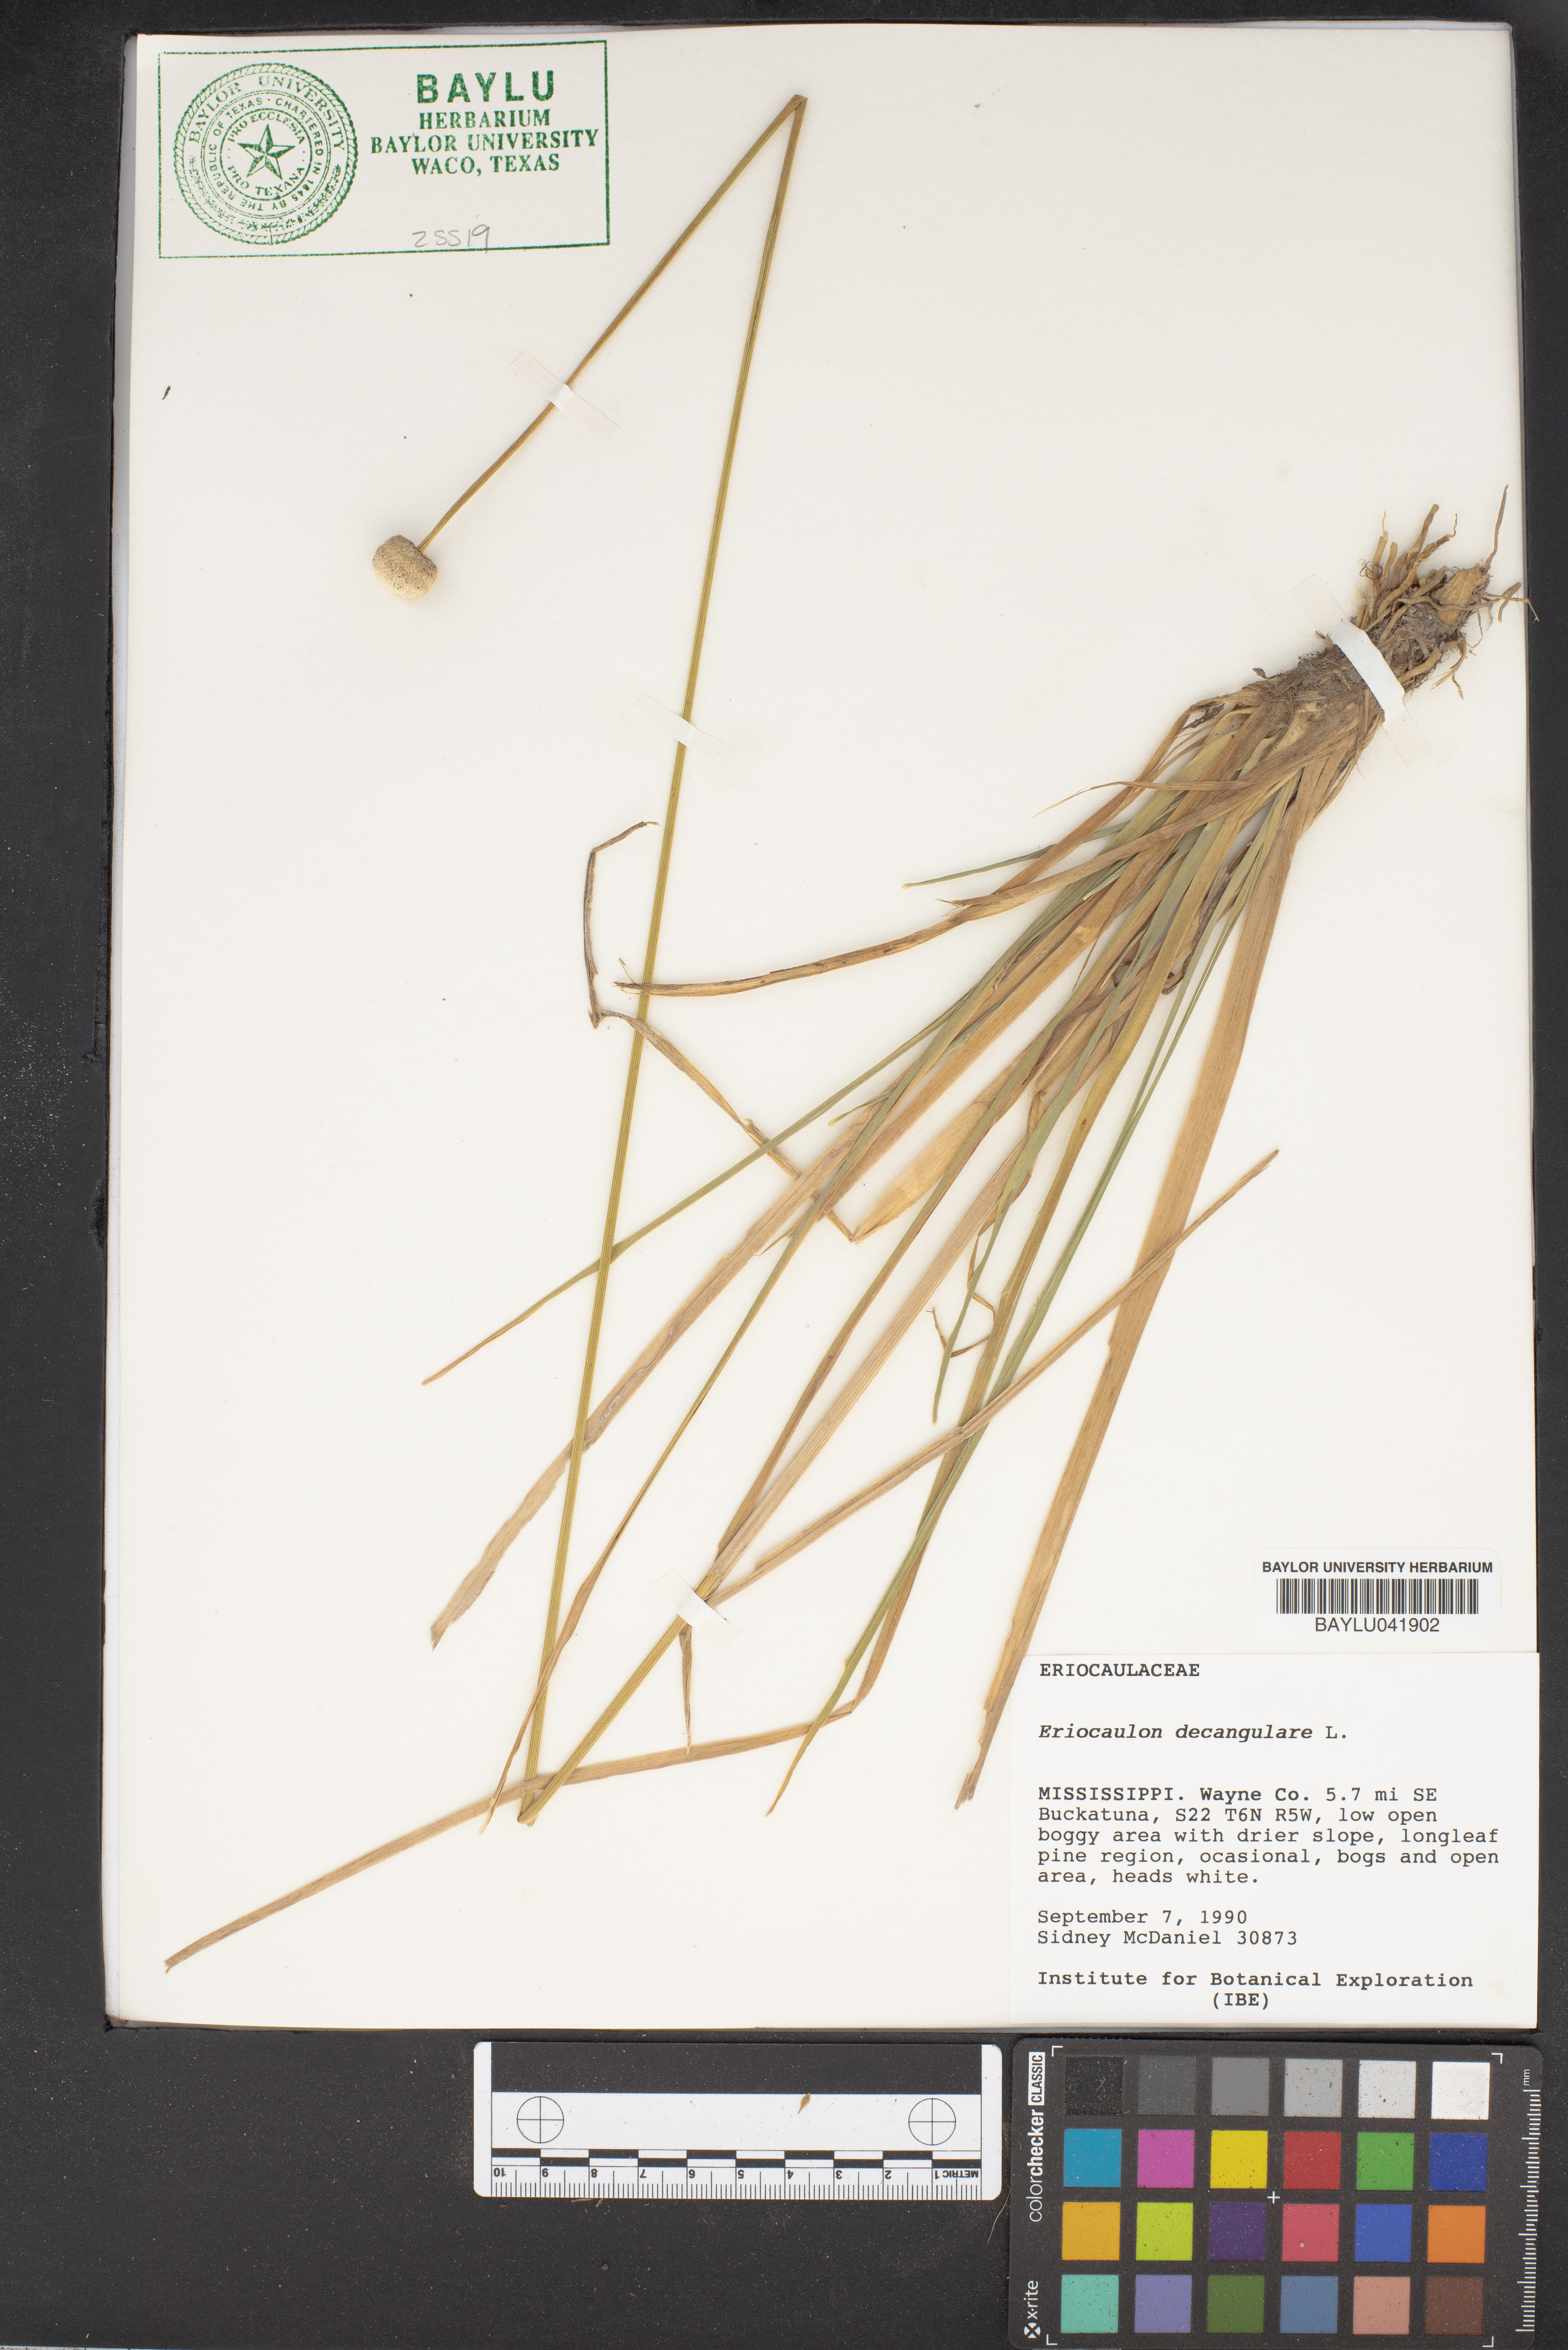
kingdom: Plantae
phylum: Tracheophyta
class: Liliopsida
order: Poales
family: Eriocaulaceae
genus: Eriocaulon
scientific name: Eriocaulon decangulare
